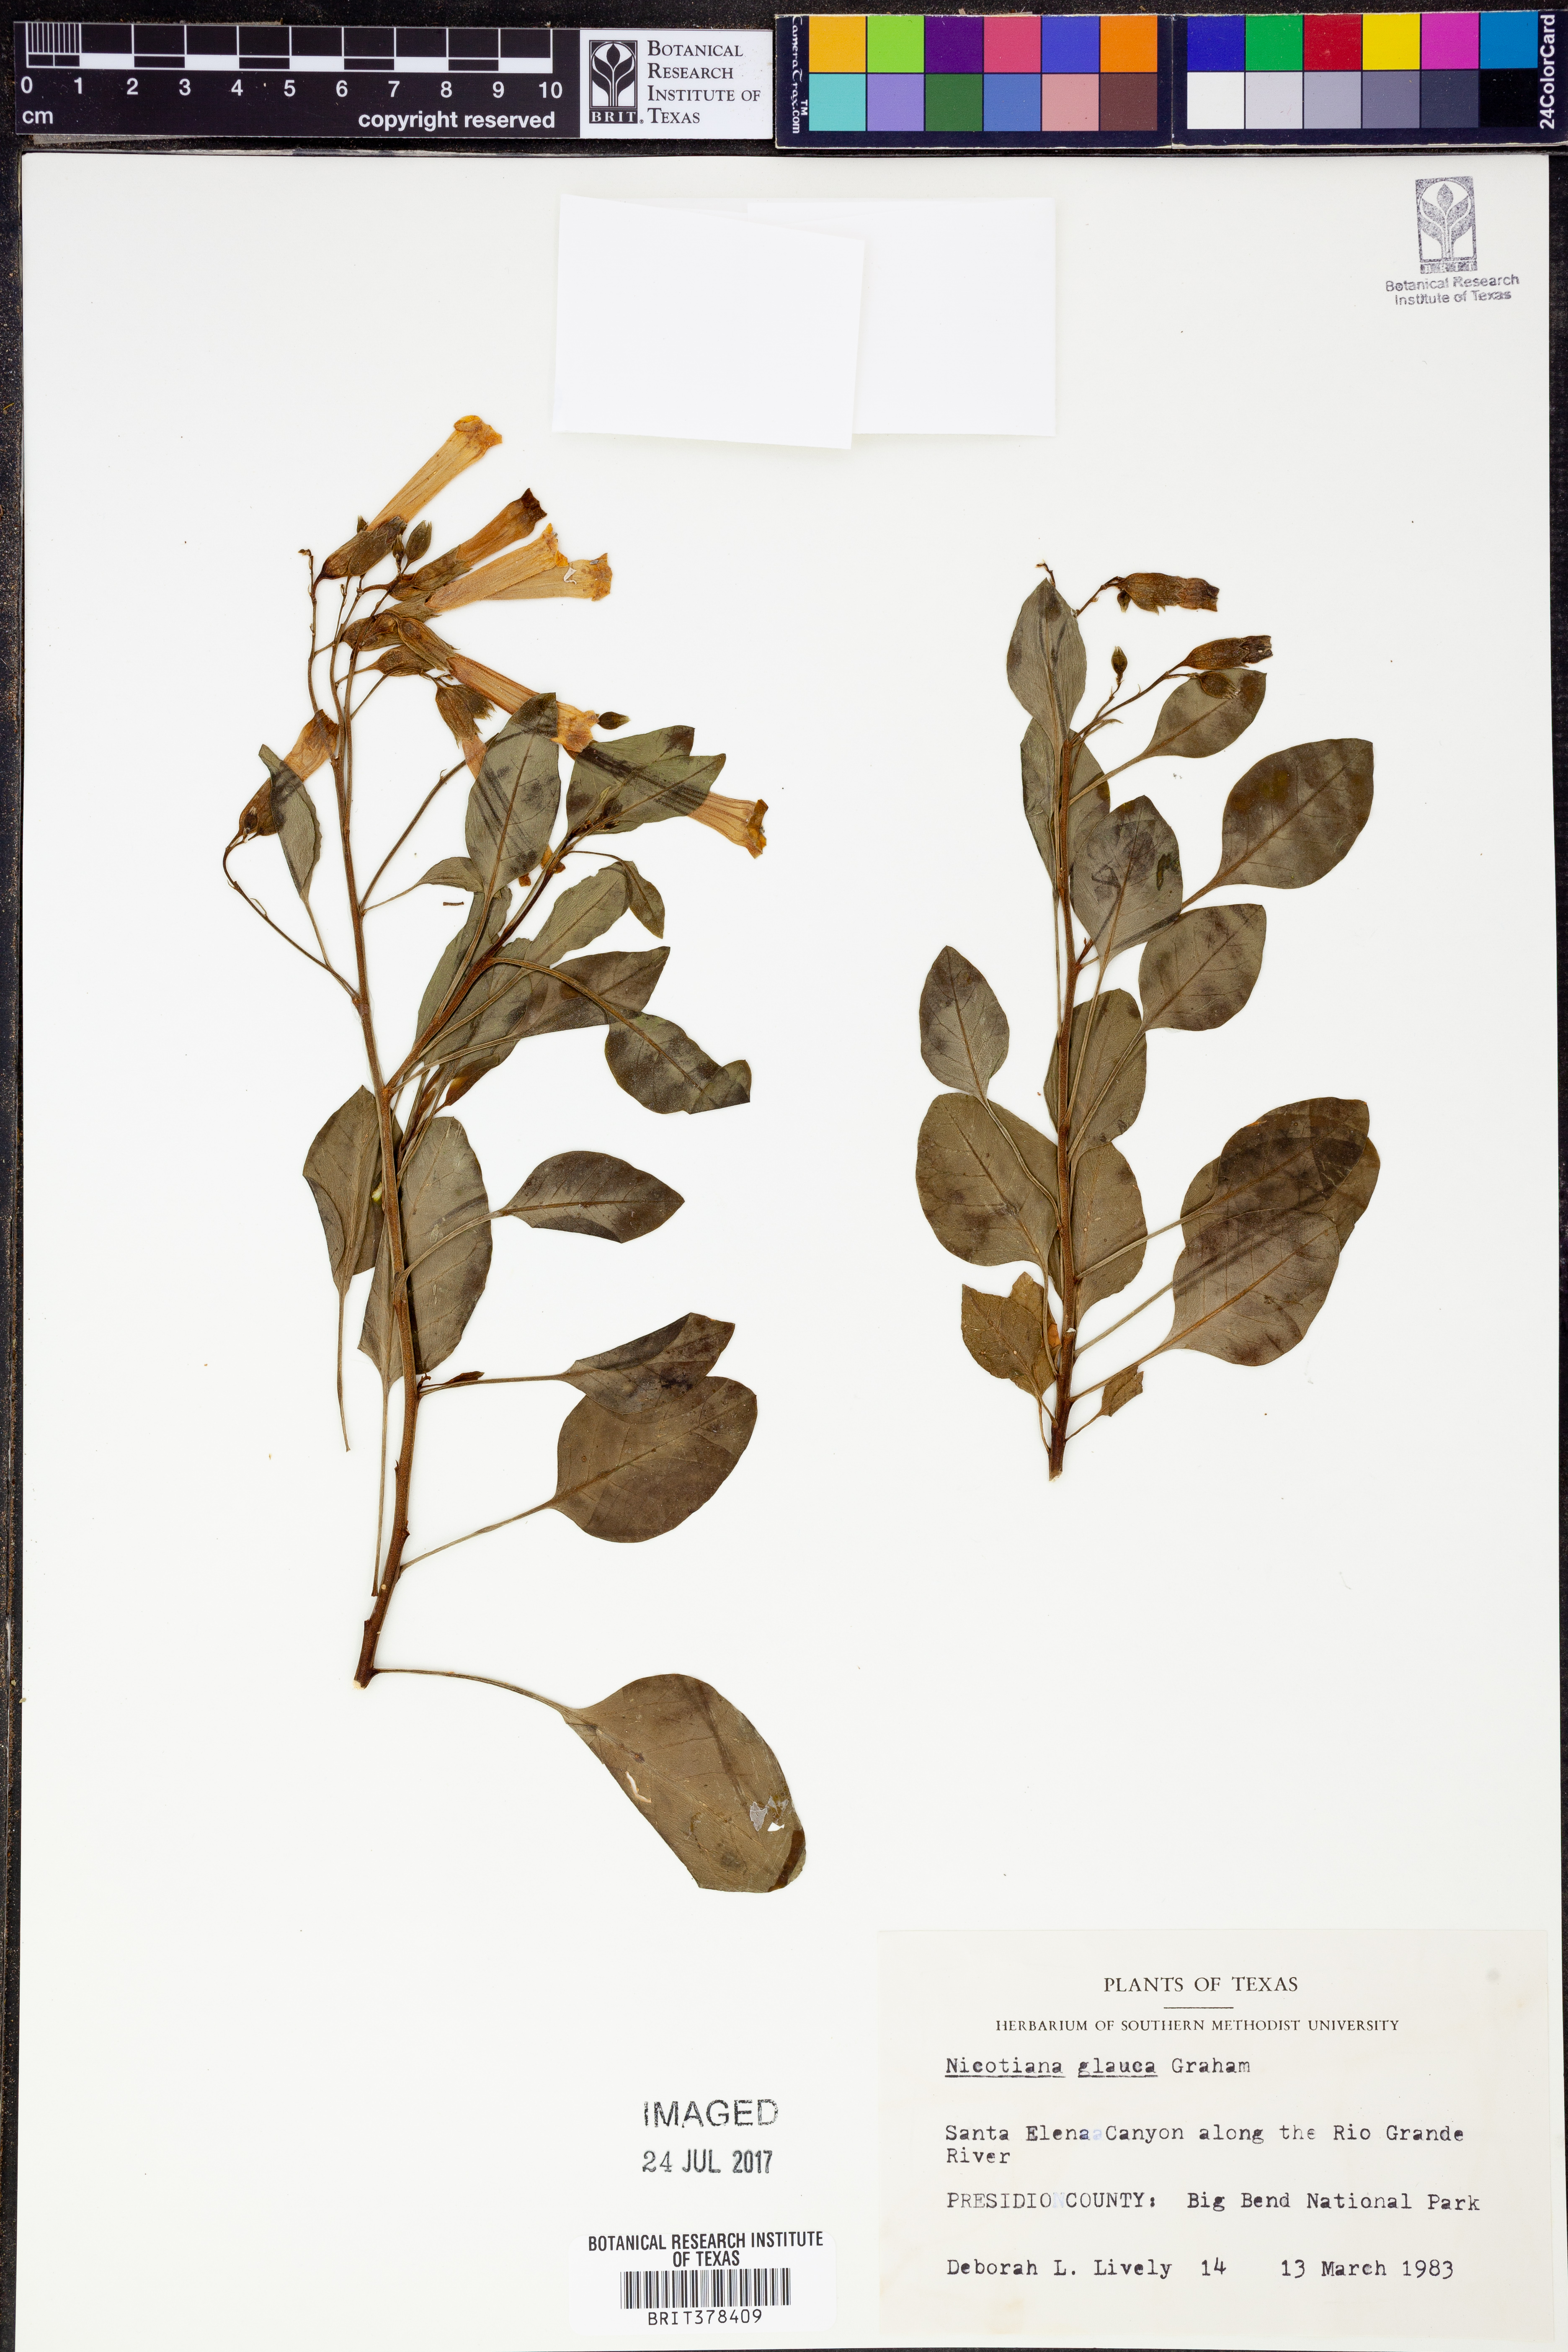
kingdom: Plantae
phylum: Tracheophyta
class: Magnoliopsida
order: Solanales
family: Solanaceae
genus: Nicotiana
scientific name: Nicotiana glauca
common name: Tree tobacco
